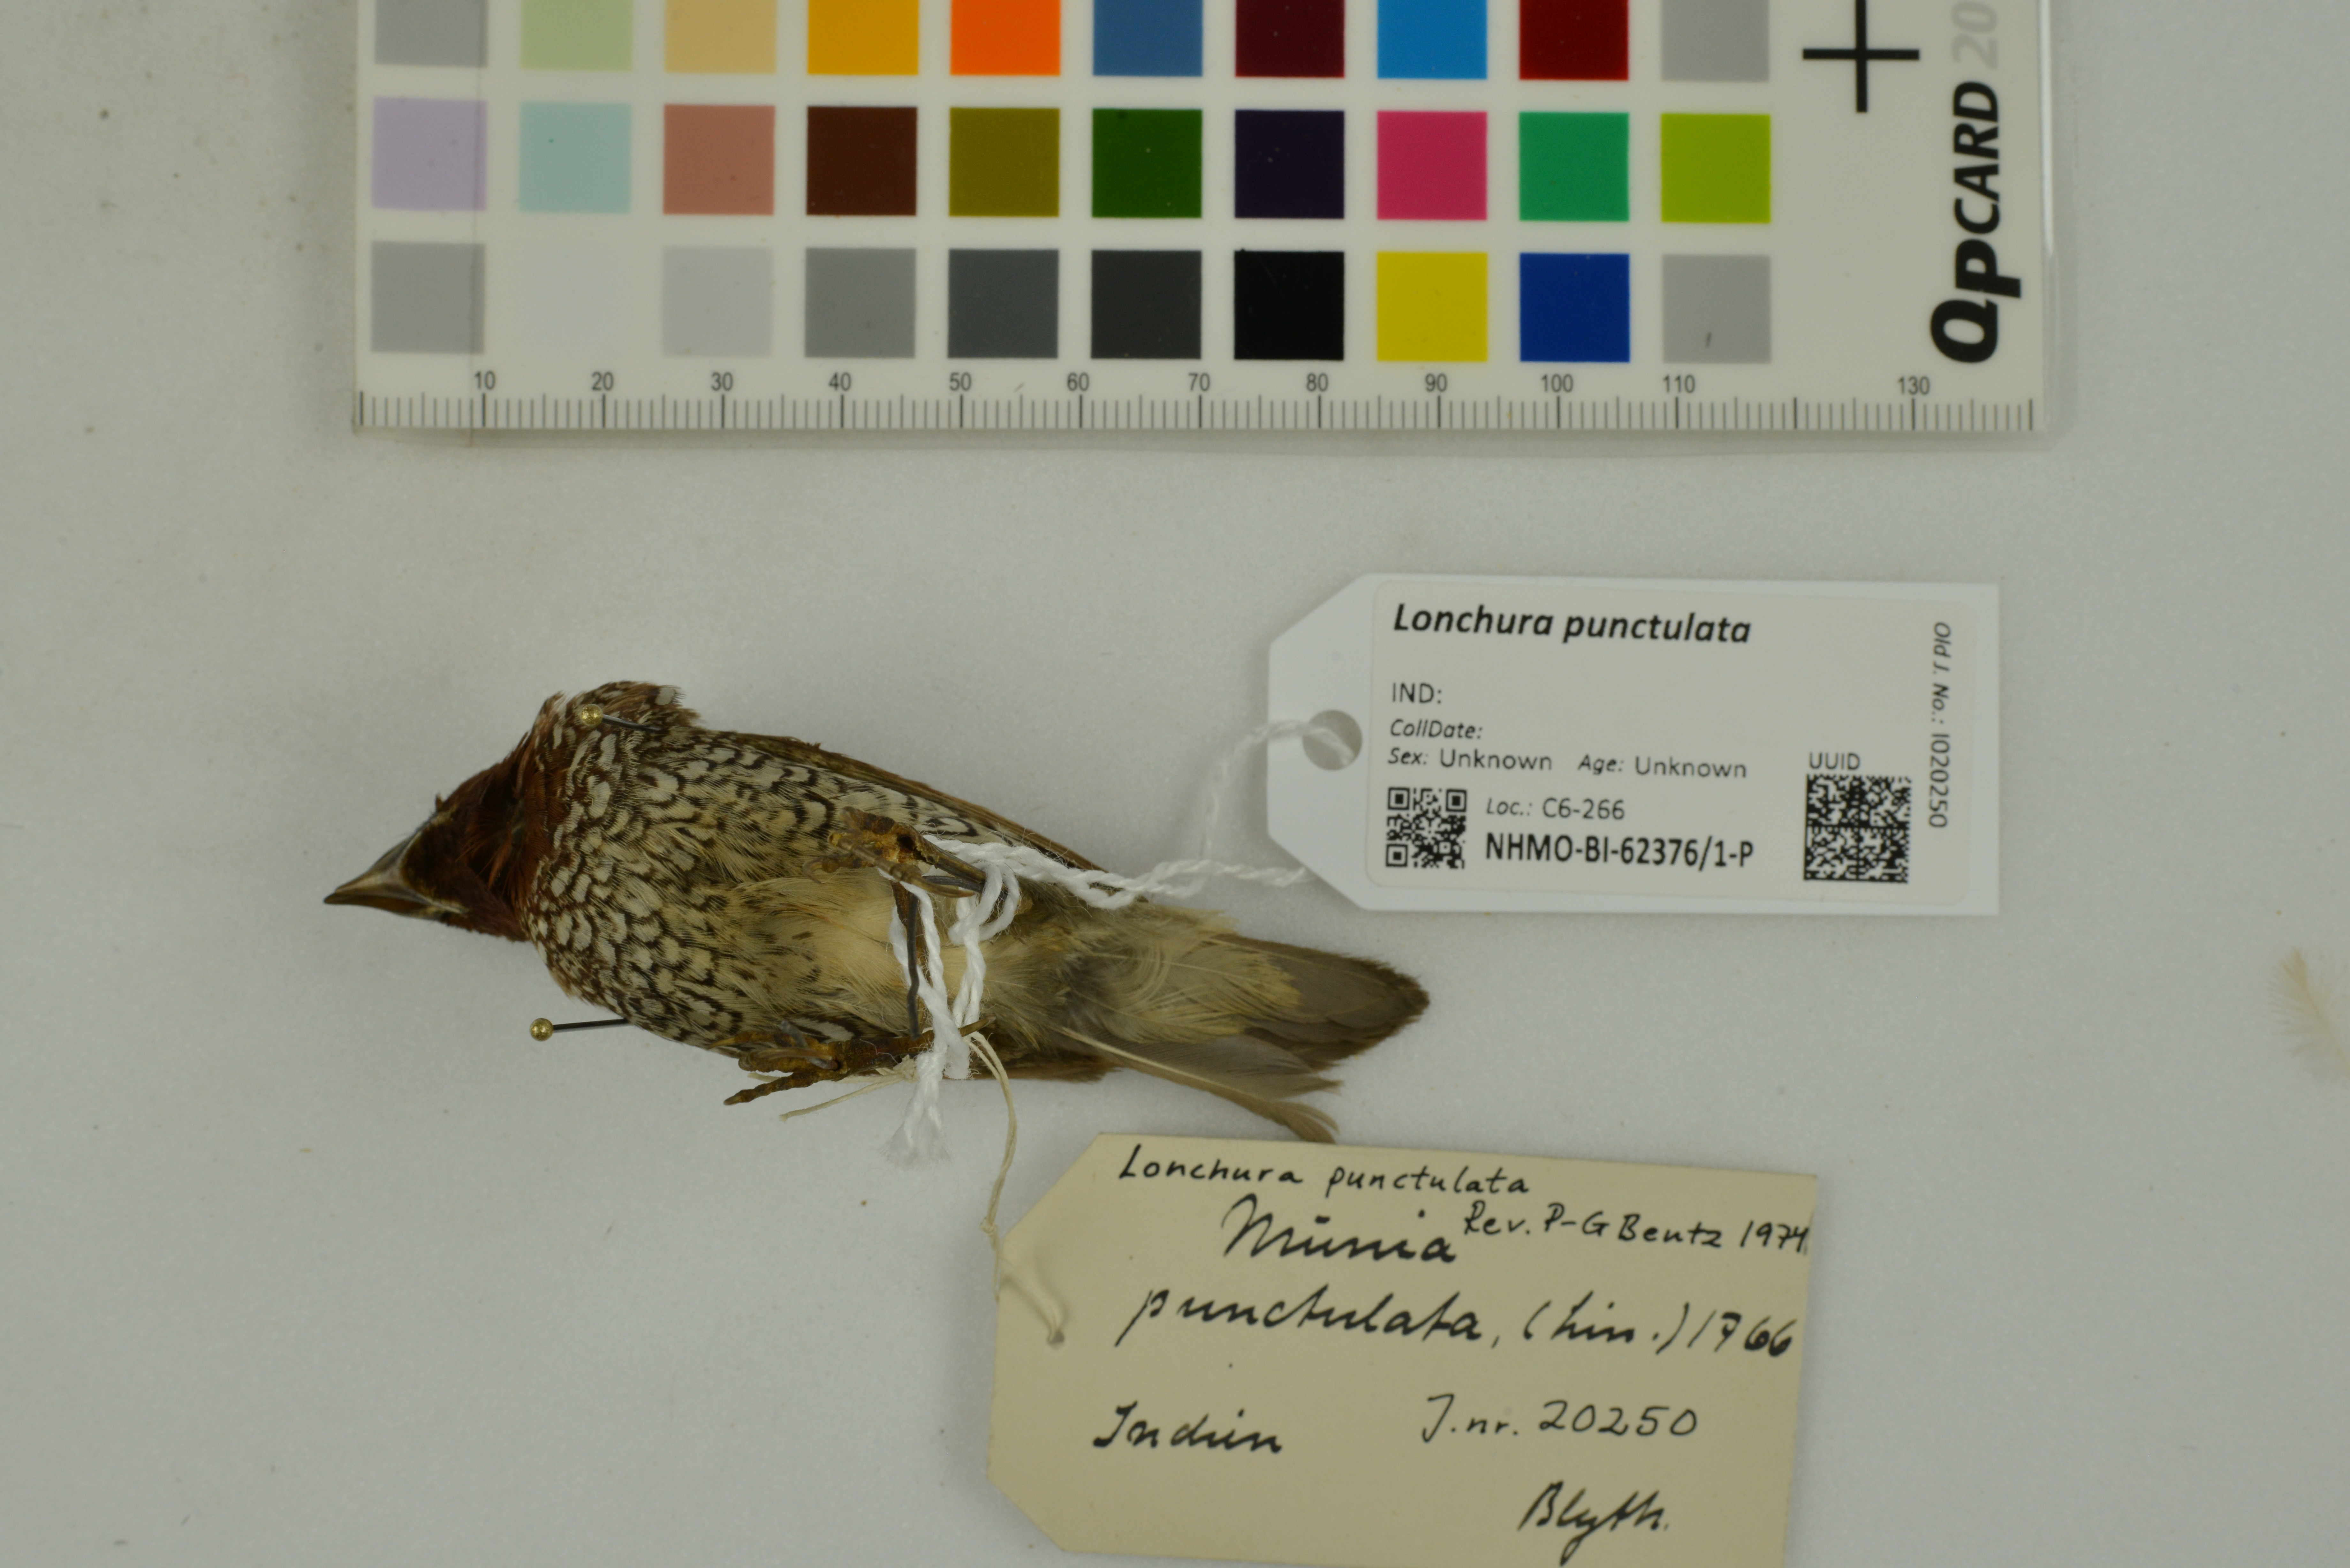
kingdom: Animalia
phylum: Chordata
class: Aves
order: Passeriformes
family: Estrildidae
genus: Lonchura
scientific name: Lonchura punctulata
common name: Scaly-breasted munia
